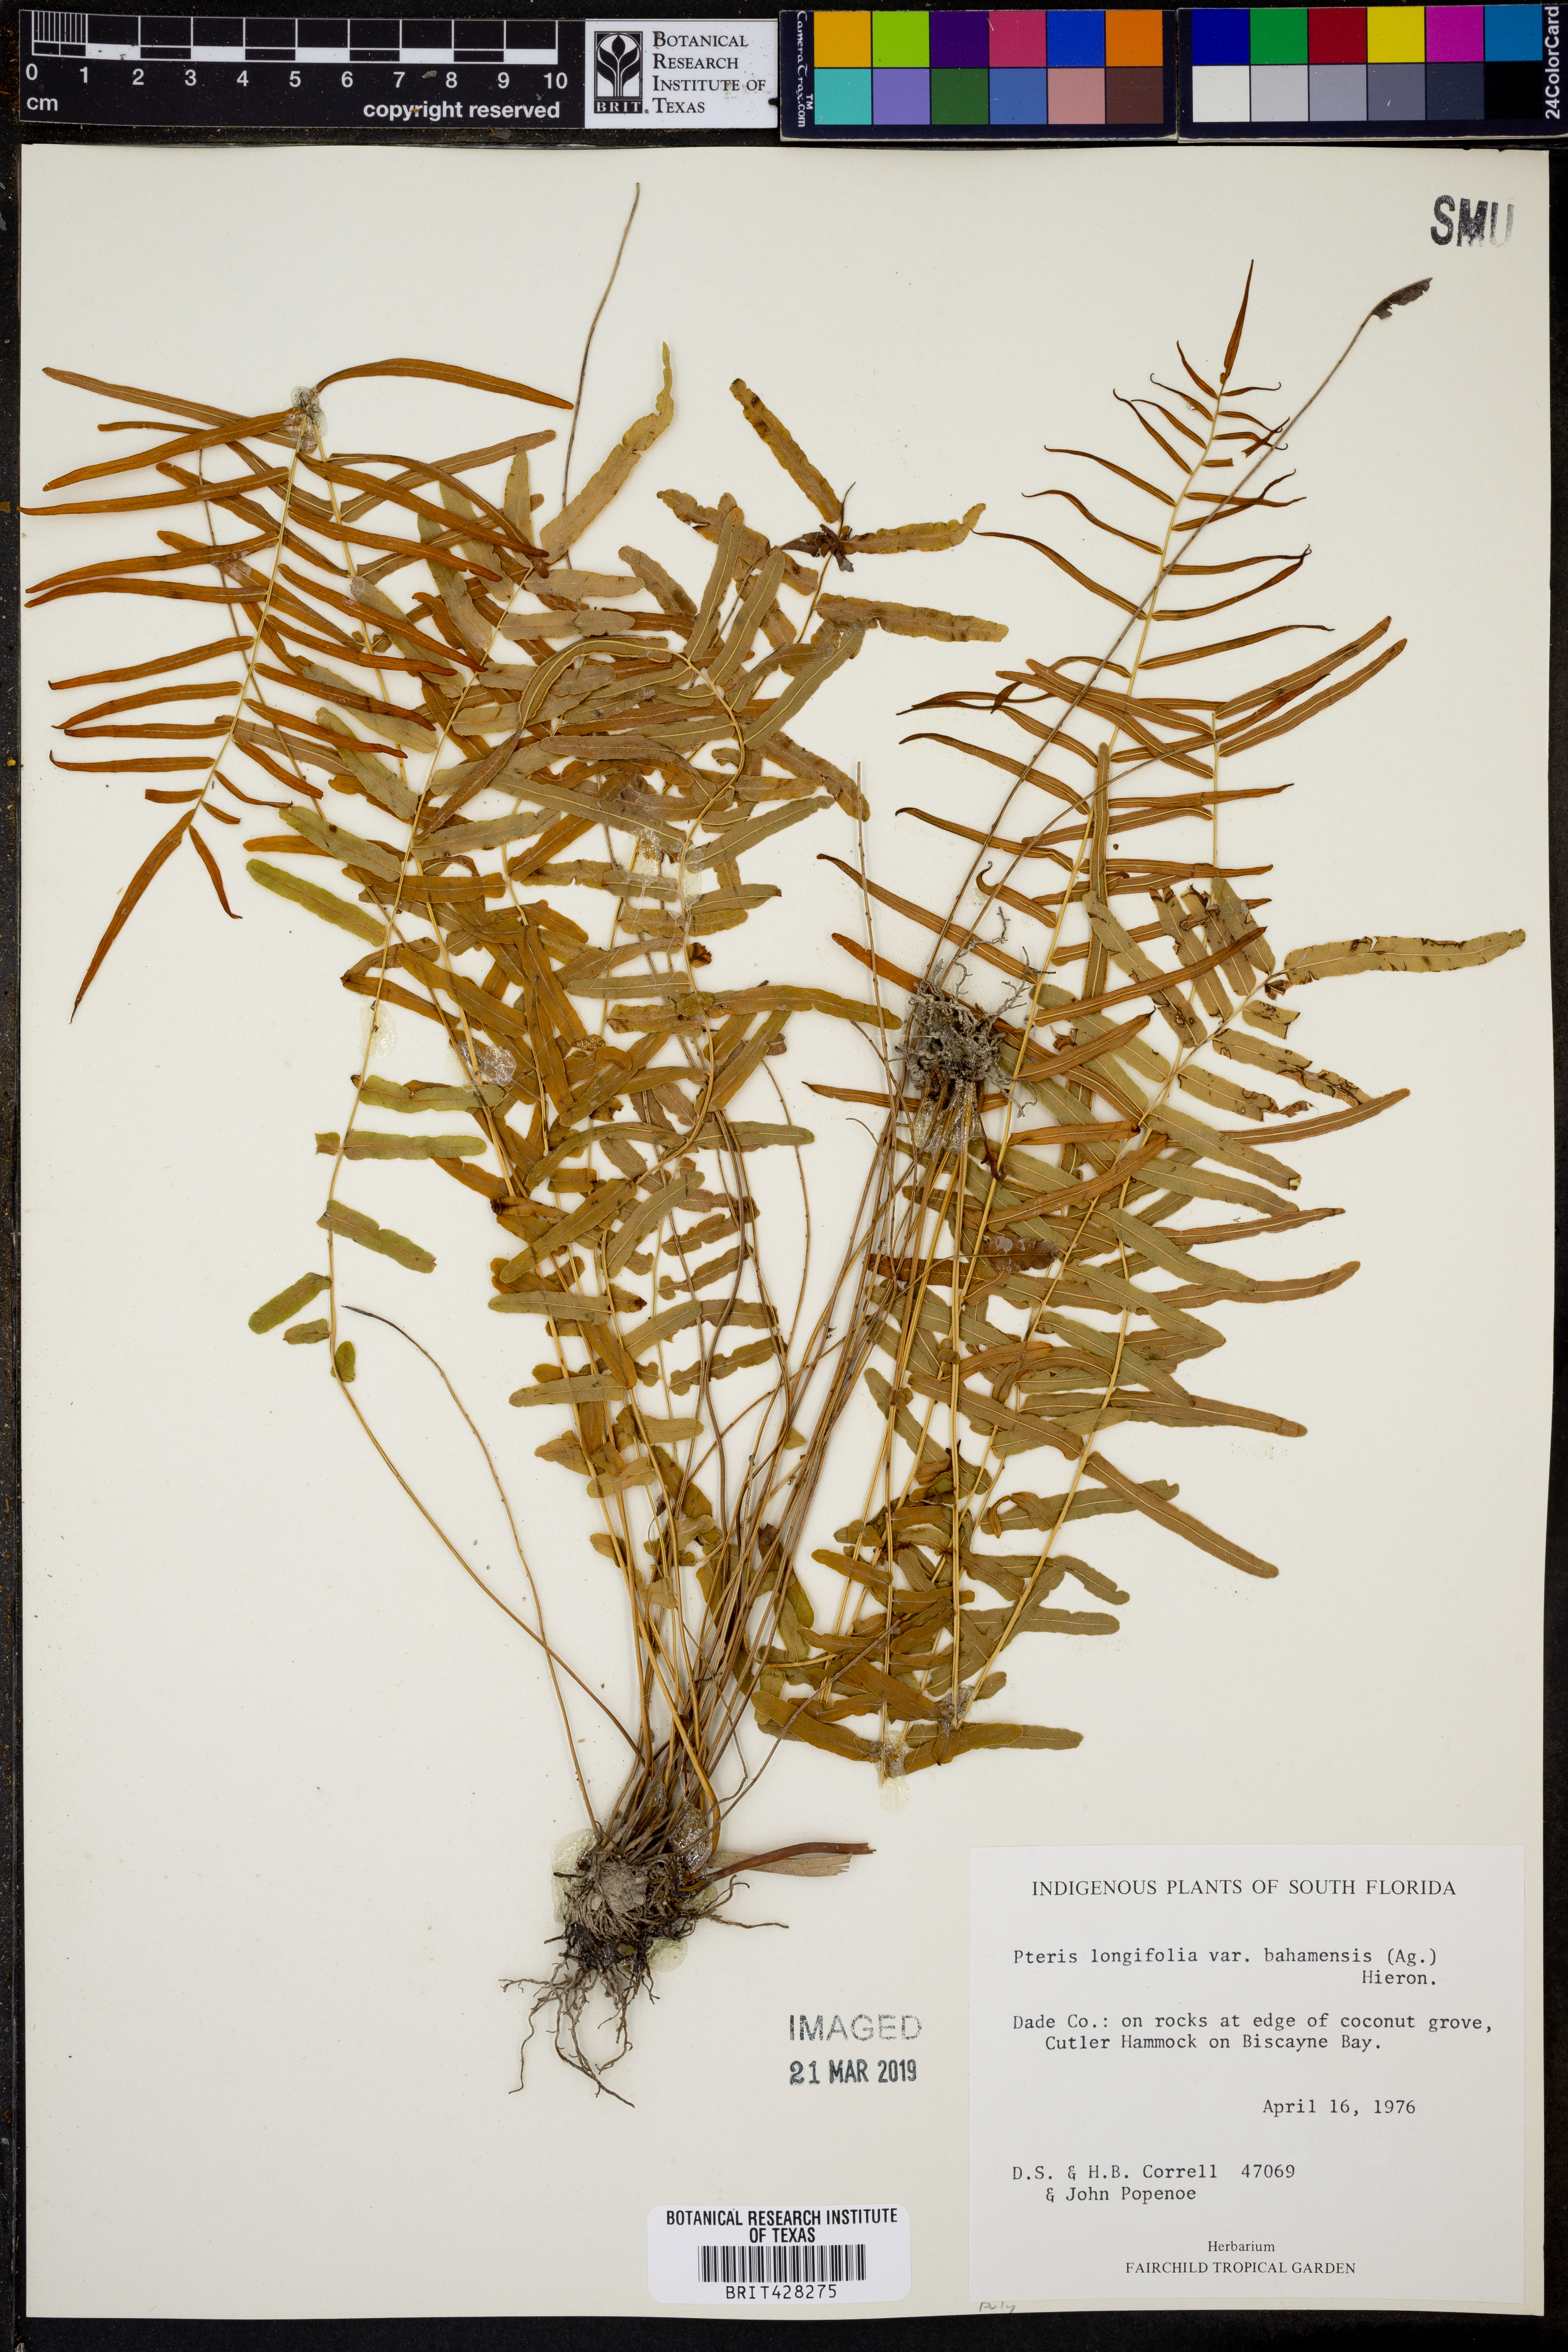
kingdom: Plantae
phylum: Tracheophyta
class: Polypodiopsida
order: Polypodiales
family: Pteridaceae
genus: Pteris
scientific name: Pteris bahamensis
